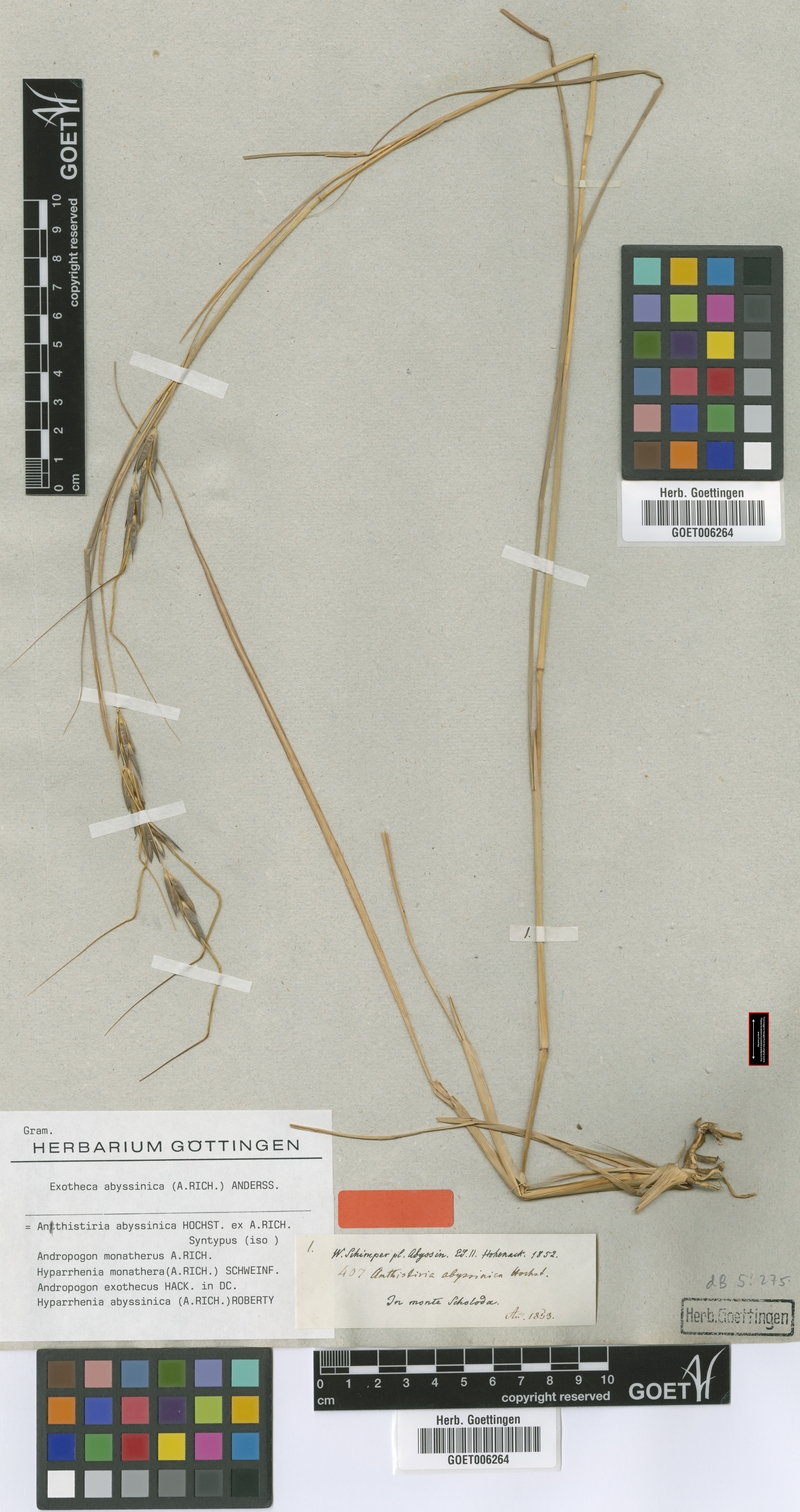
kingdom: Plantae
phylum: Tracheophyta
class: Liliopsida
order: Poales
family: Poaceae
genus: Exotheca
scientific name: Exotheca abyssinica
